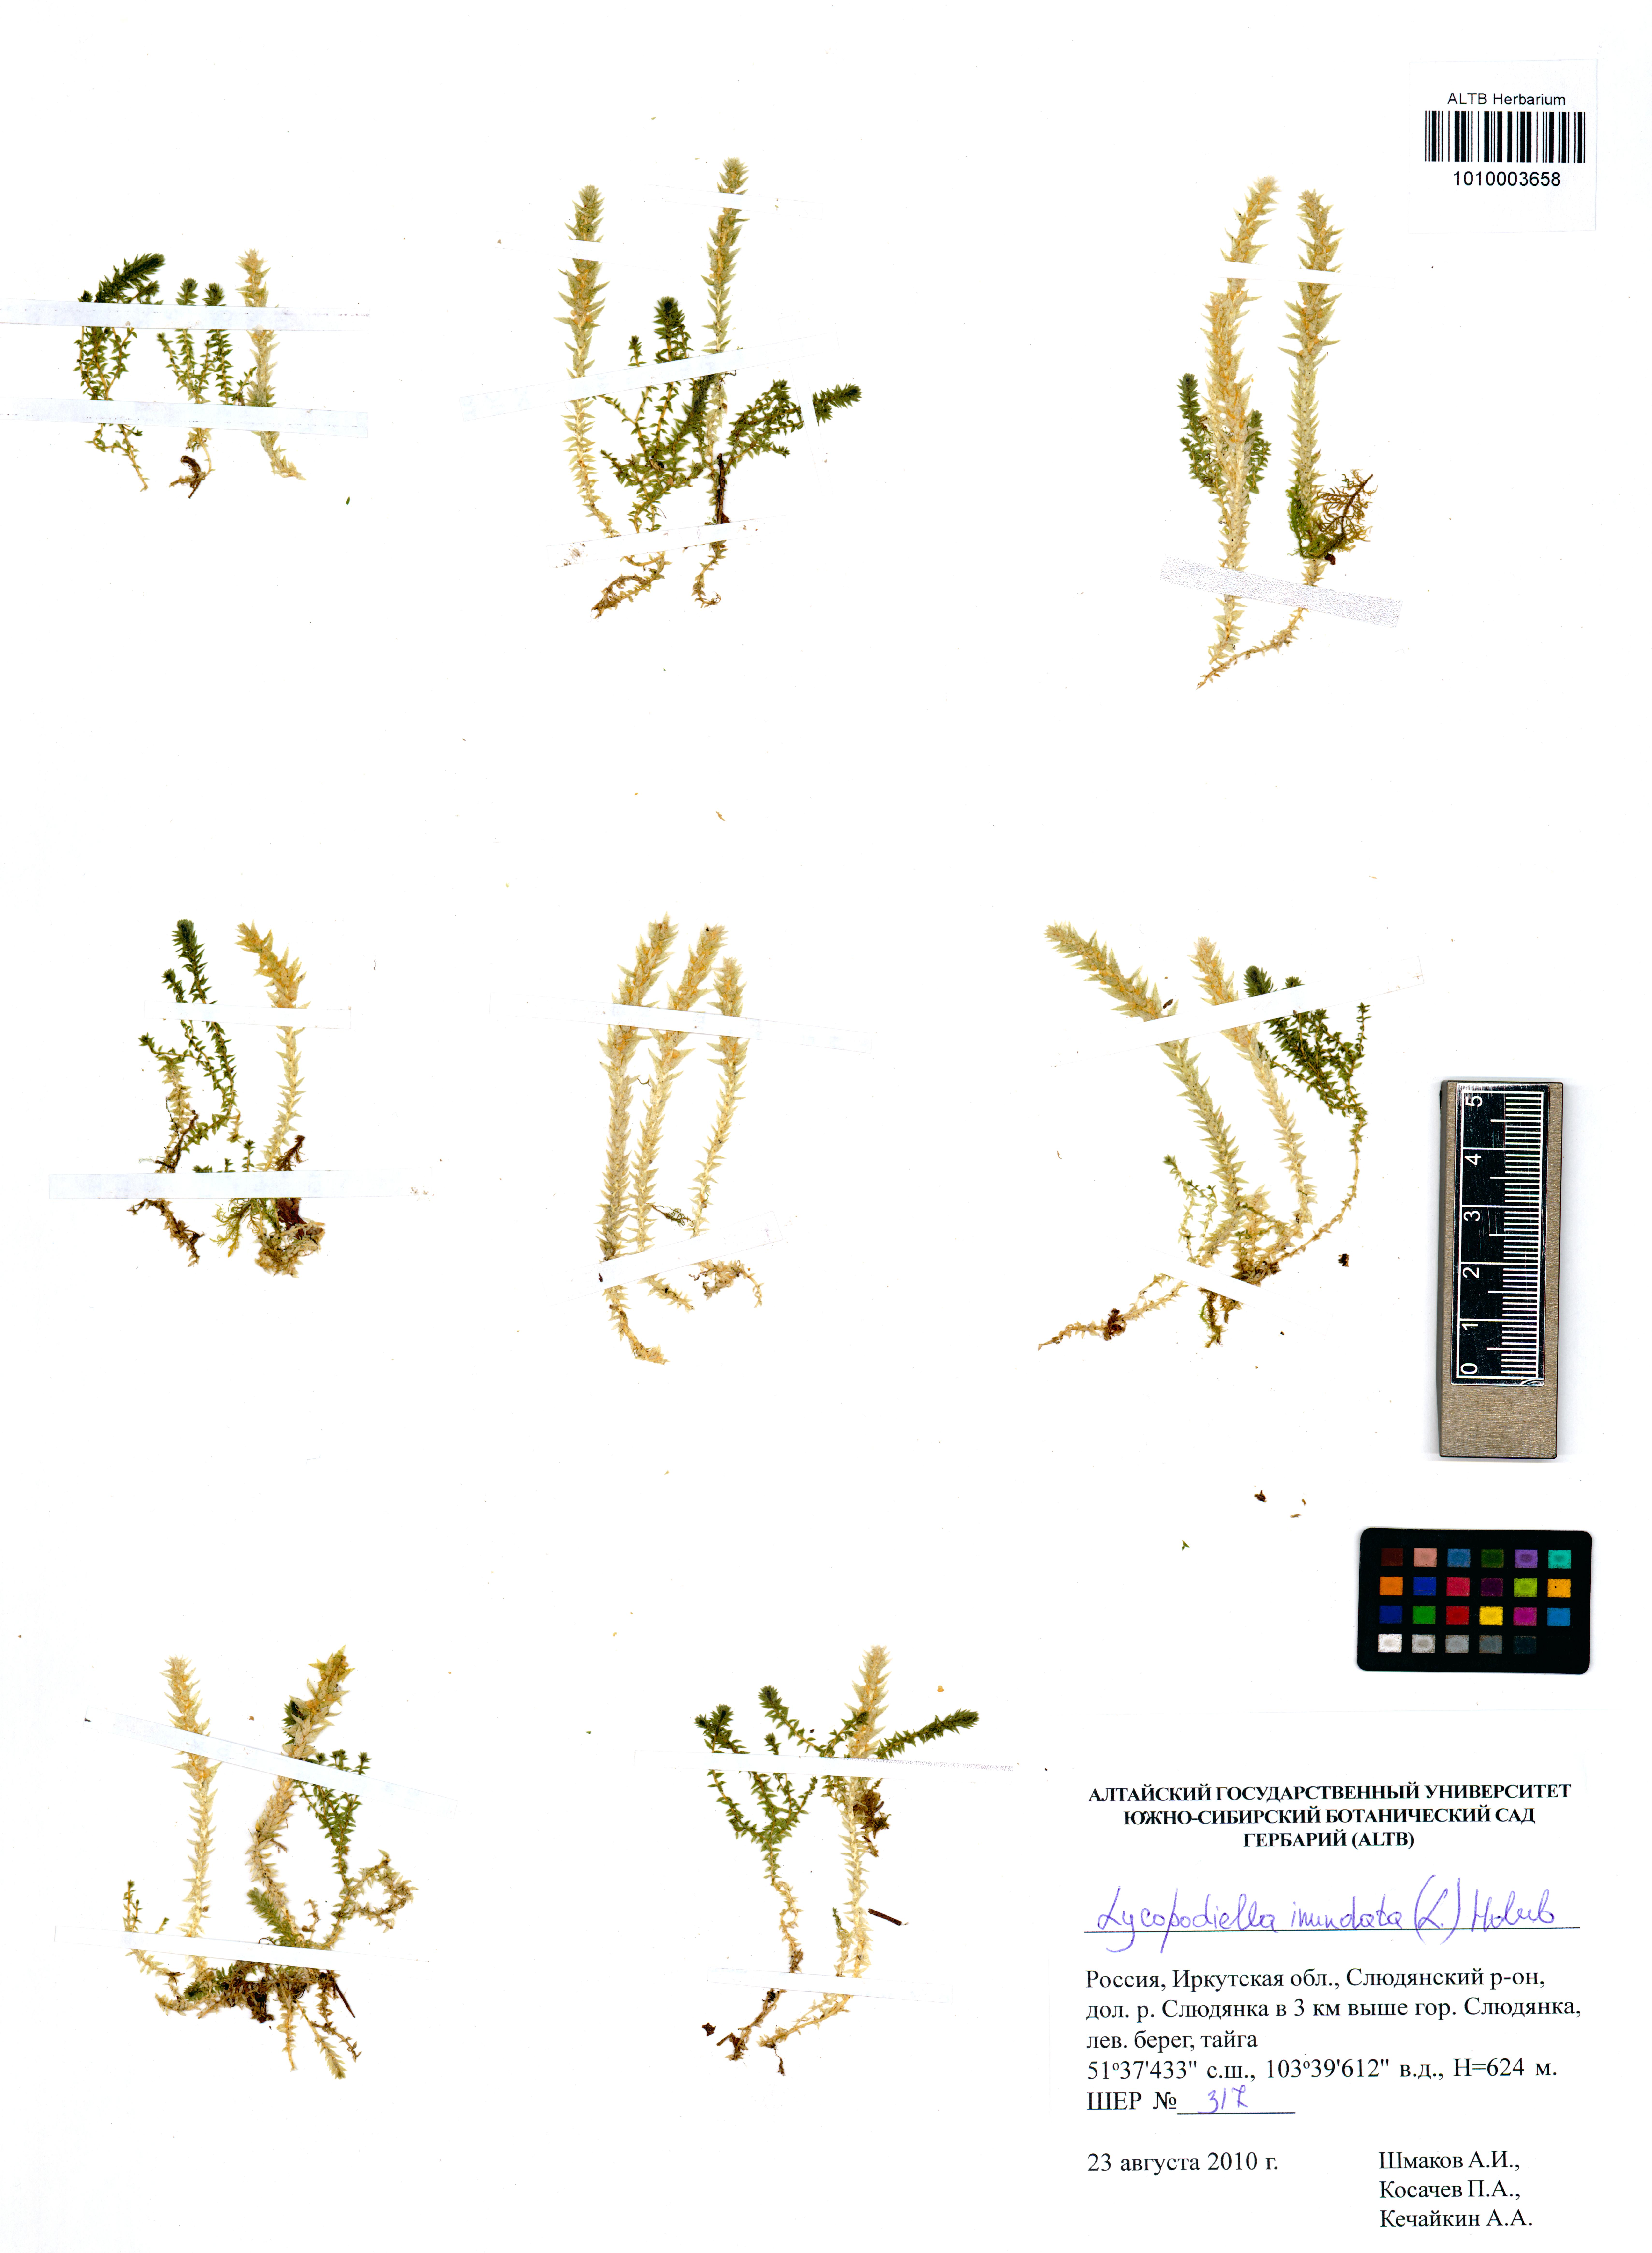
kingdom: Plantae
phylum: Tracheophyta
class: Lycopodiopsida
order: Lycopodiales
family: Lycopodiaceae
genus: Lycopodiella
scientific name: Lycopodiella inundata
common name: Marsh clubmoss
